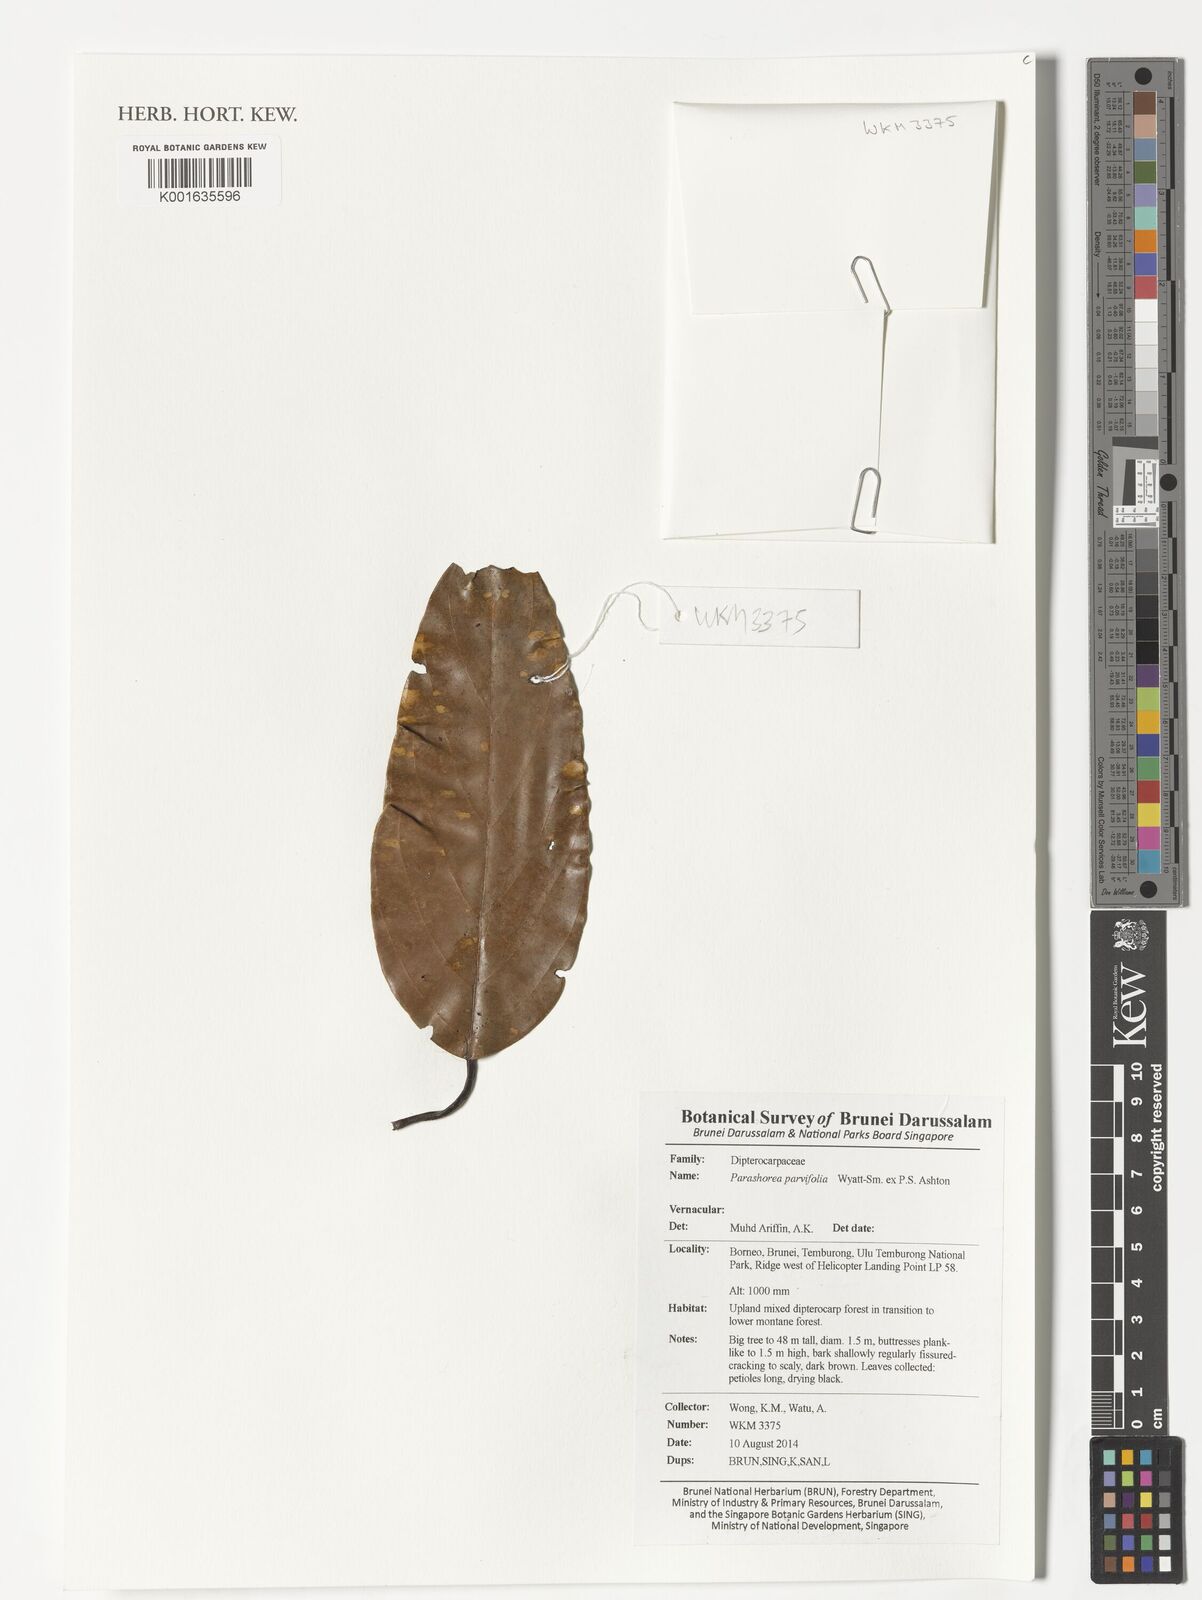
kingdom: Plantae
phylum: Tracheophyta
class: Magnoliopsida
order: Malvales
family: Dipterocarpaceae
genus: Parashorea
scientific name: Parashorea parvifolia
